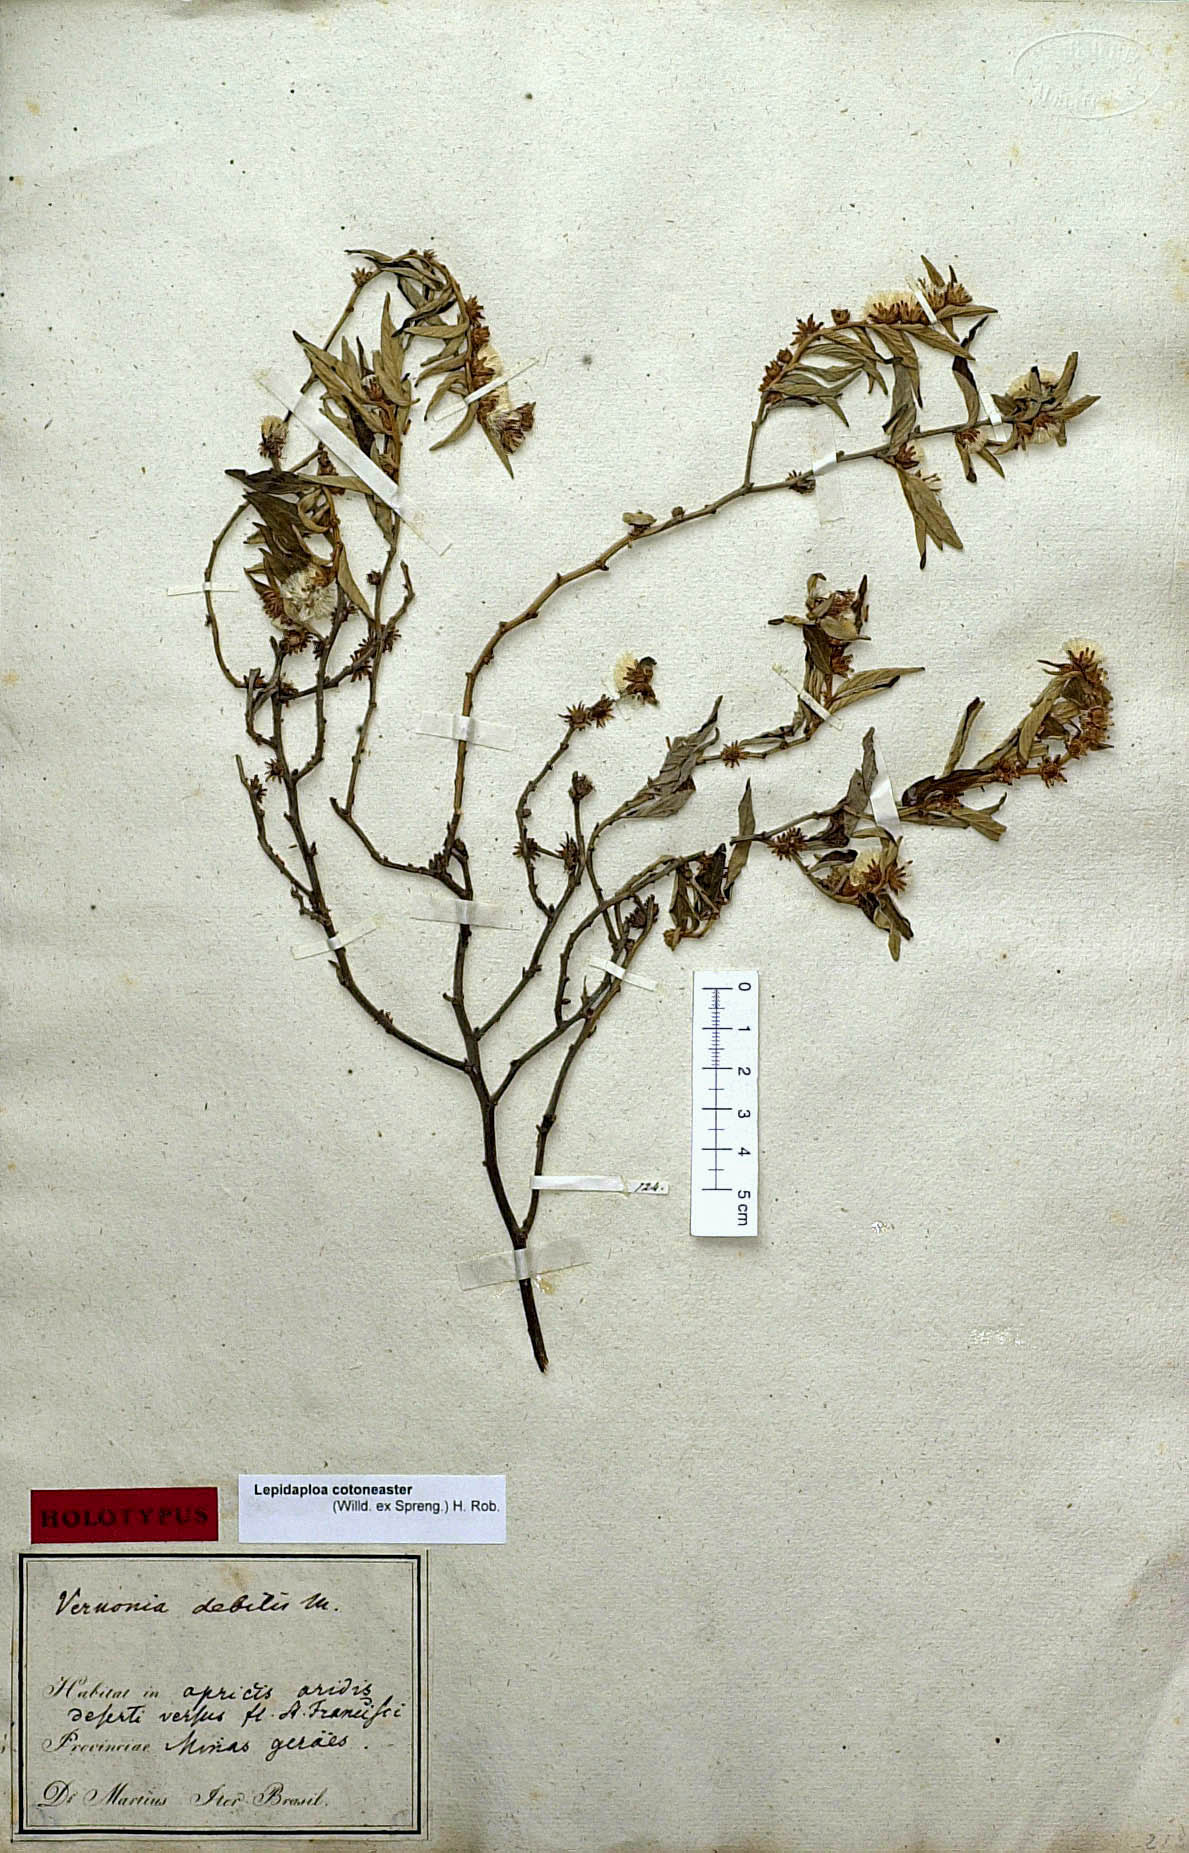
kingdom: Plantae
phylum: Tracheophyta
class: Magnoliopsida
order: Asterales
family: Asteraceae
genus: Lepidaploa
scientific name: Lepidaploa cotoneaster
